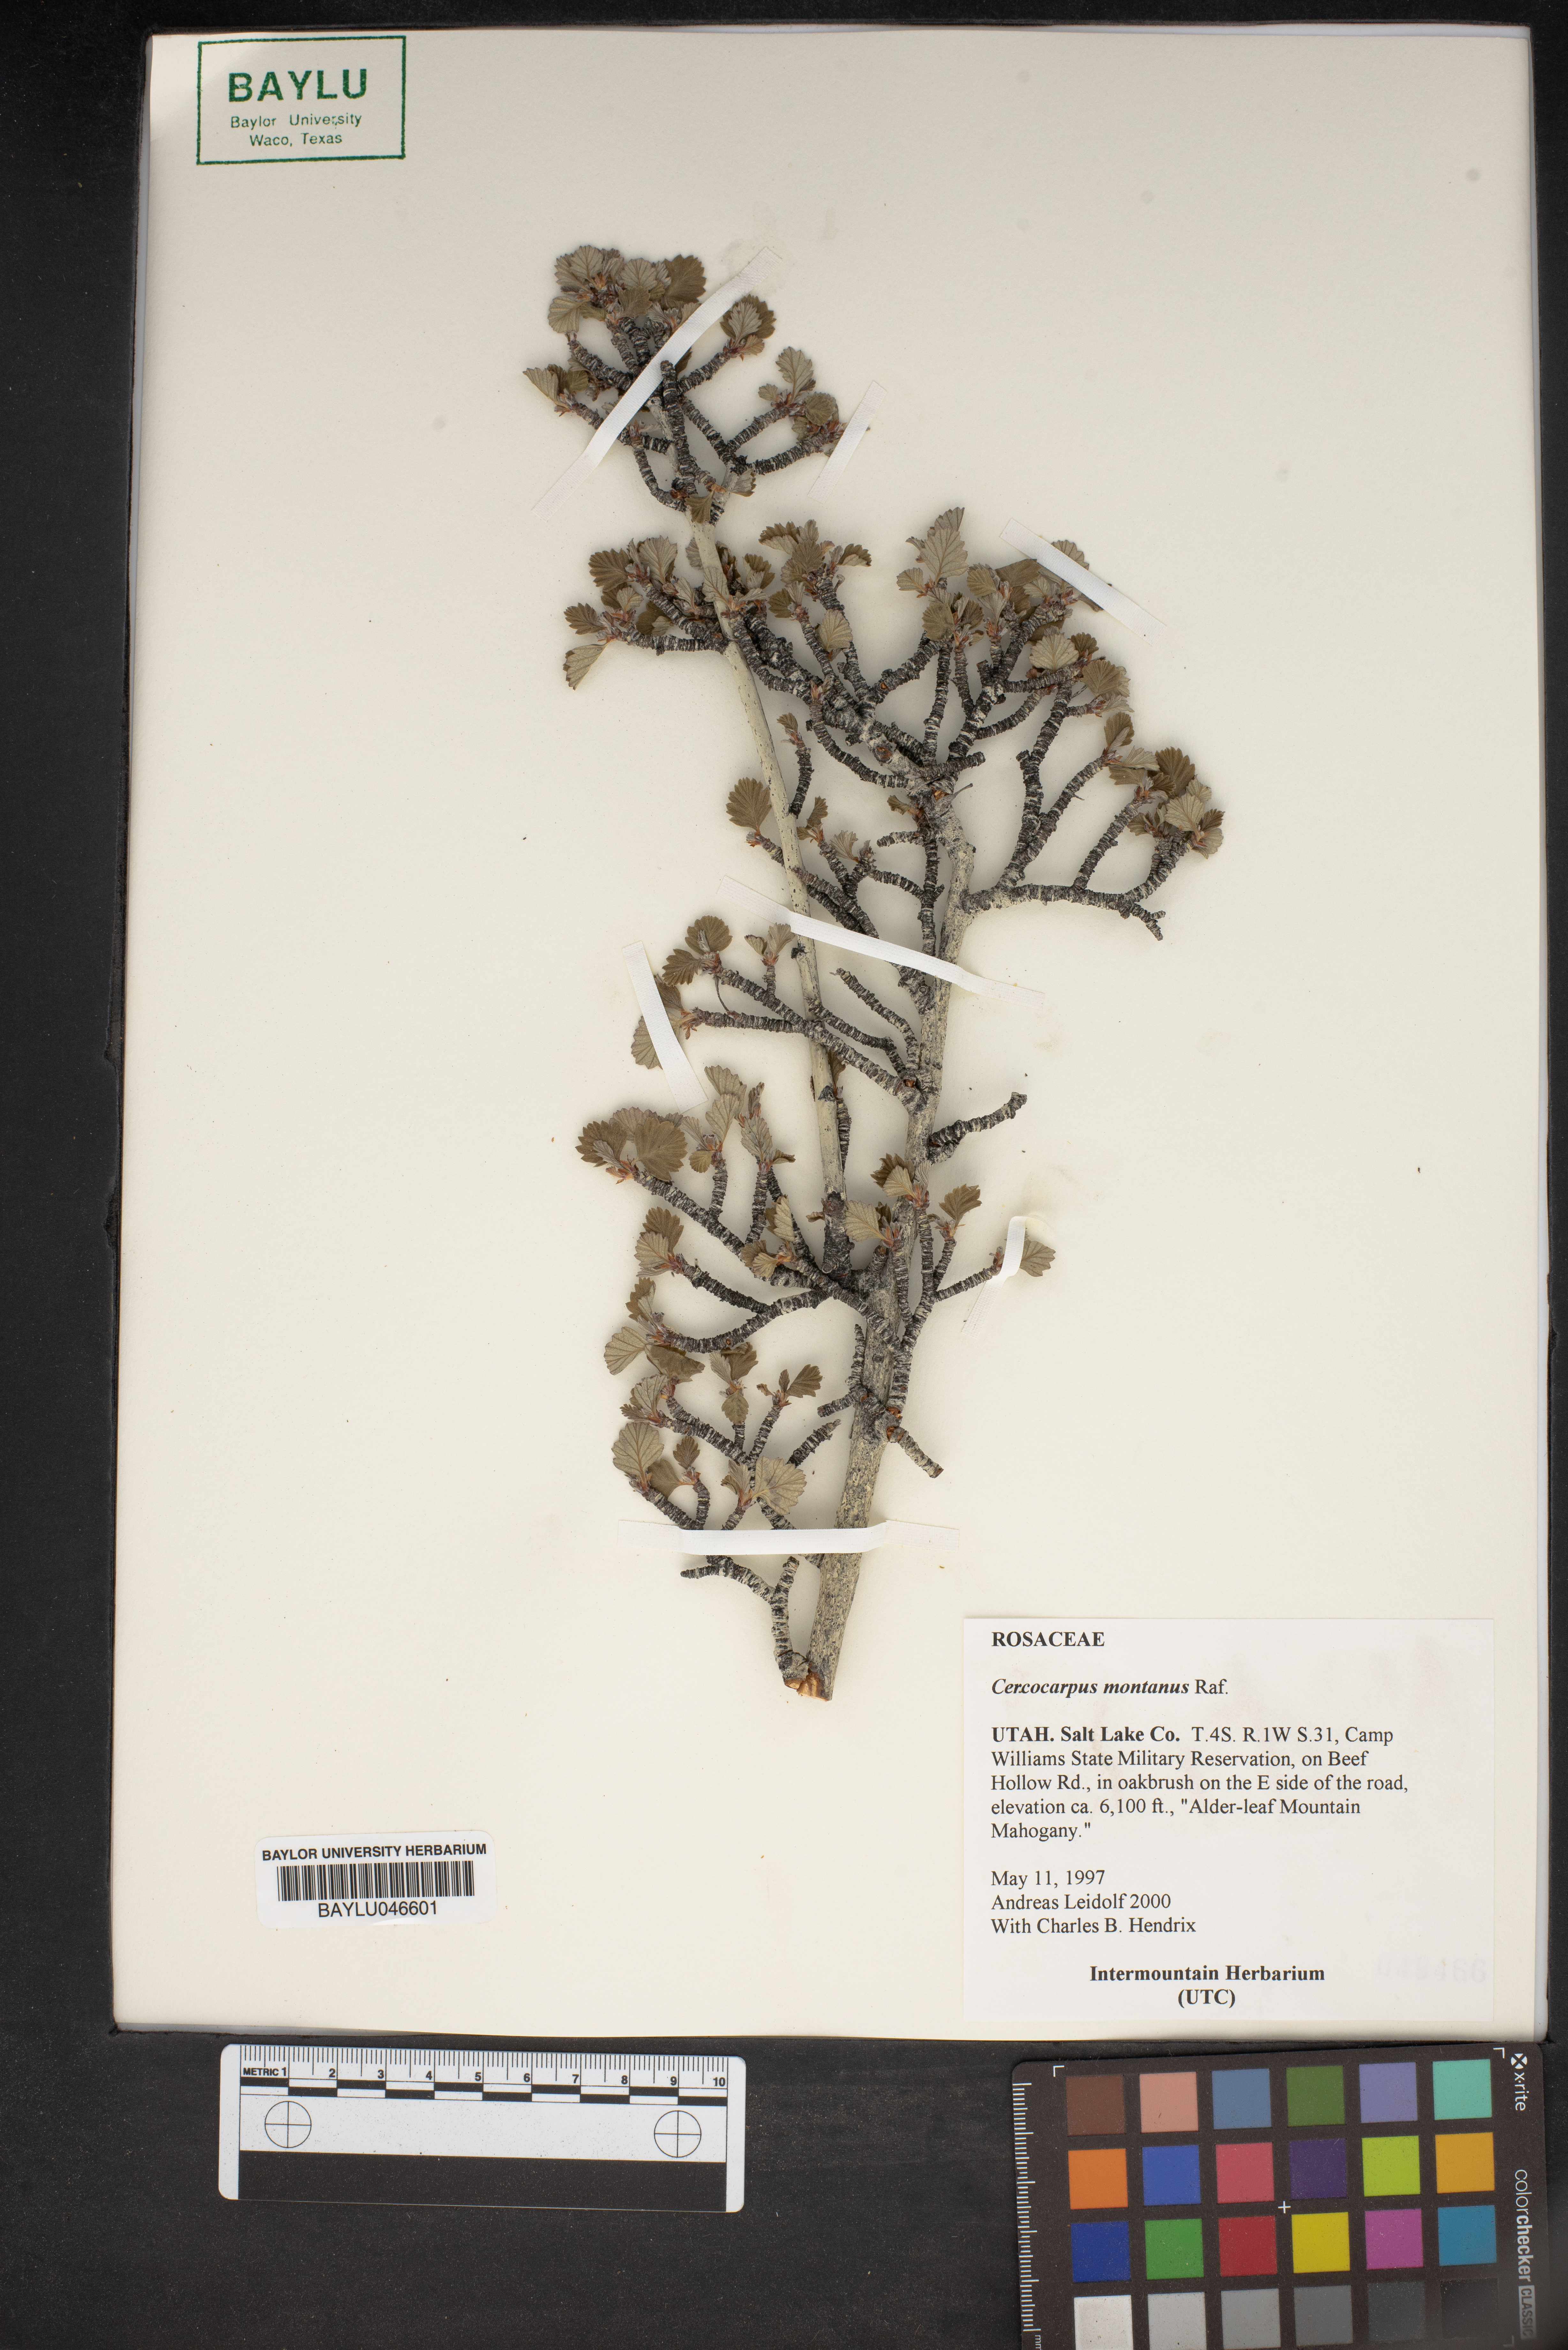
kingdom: Plantae
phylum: Tracheophyta
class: Magnoliopsida
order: Rosales
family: Rosaceae
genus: Cercocarpus
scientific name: Cercocarpus montanus
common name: Alder-leaf cercocarpus
